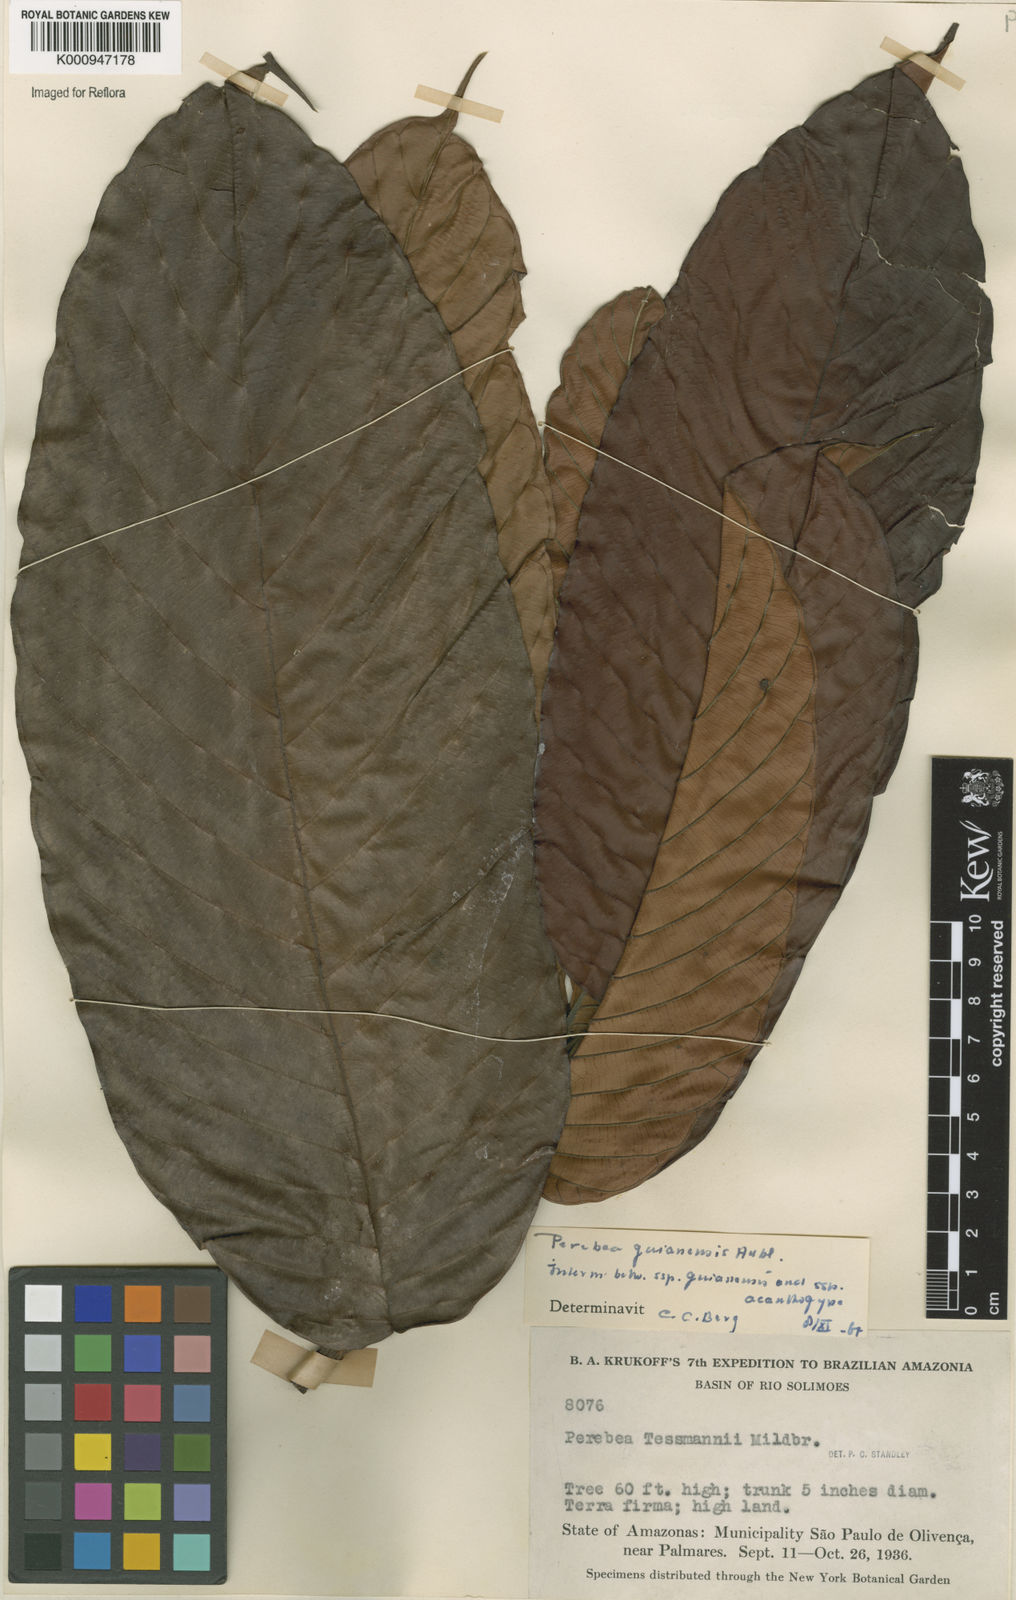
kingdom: Plantae
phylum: Tracheophyta
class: Magnoliopsida
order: Rosales
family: Moraceae
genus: Perebea
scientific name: Perebea
